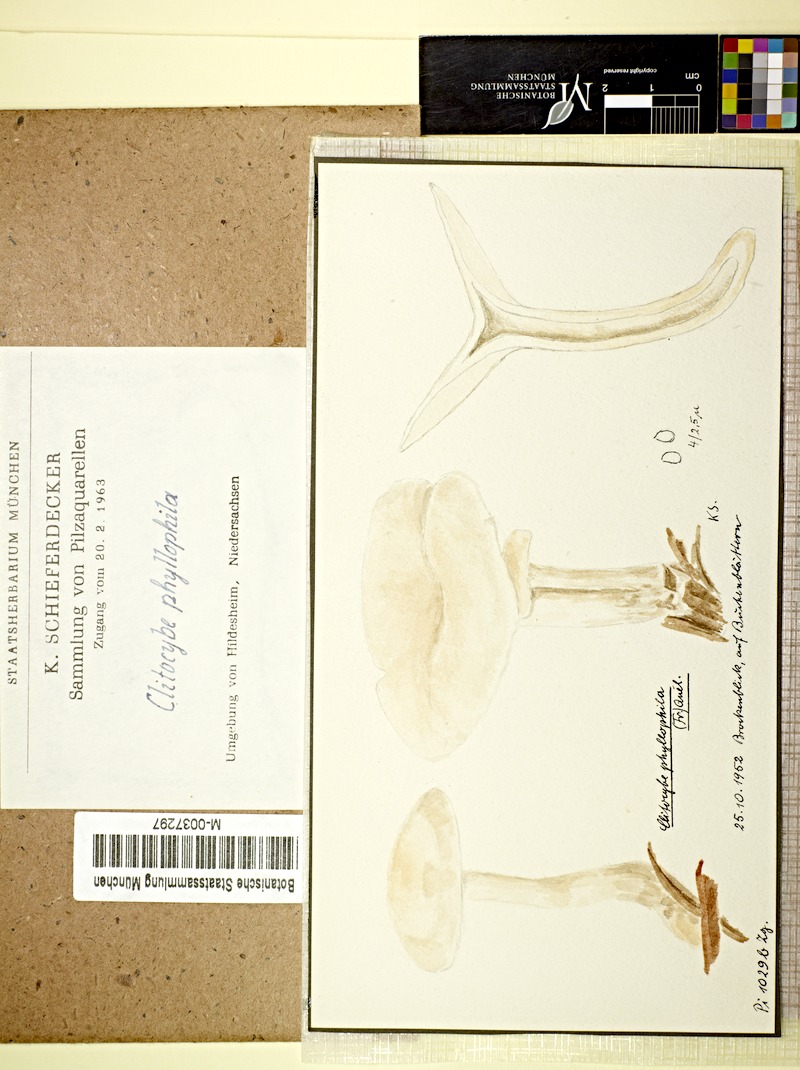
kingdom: Fungi
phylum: Basidiomycota
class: Agaricomycetes
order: Agaricales
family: Tricholomataceae
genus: Clitocybe
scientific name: Clitocybe phyllophila
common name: Frosty funnel
